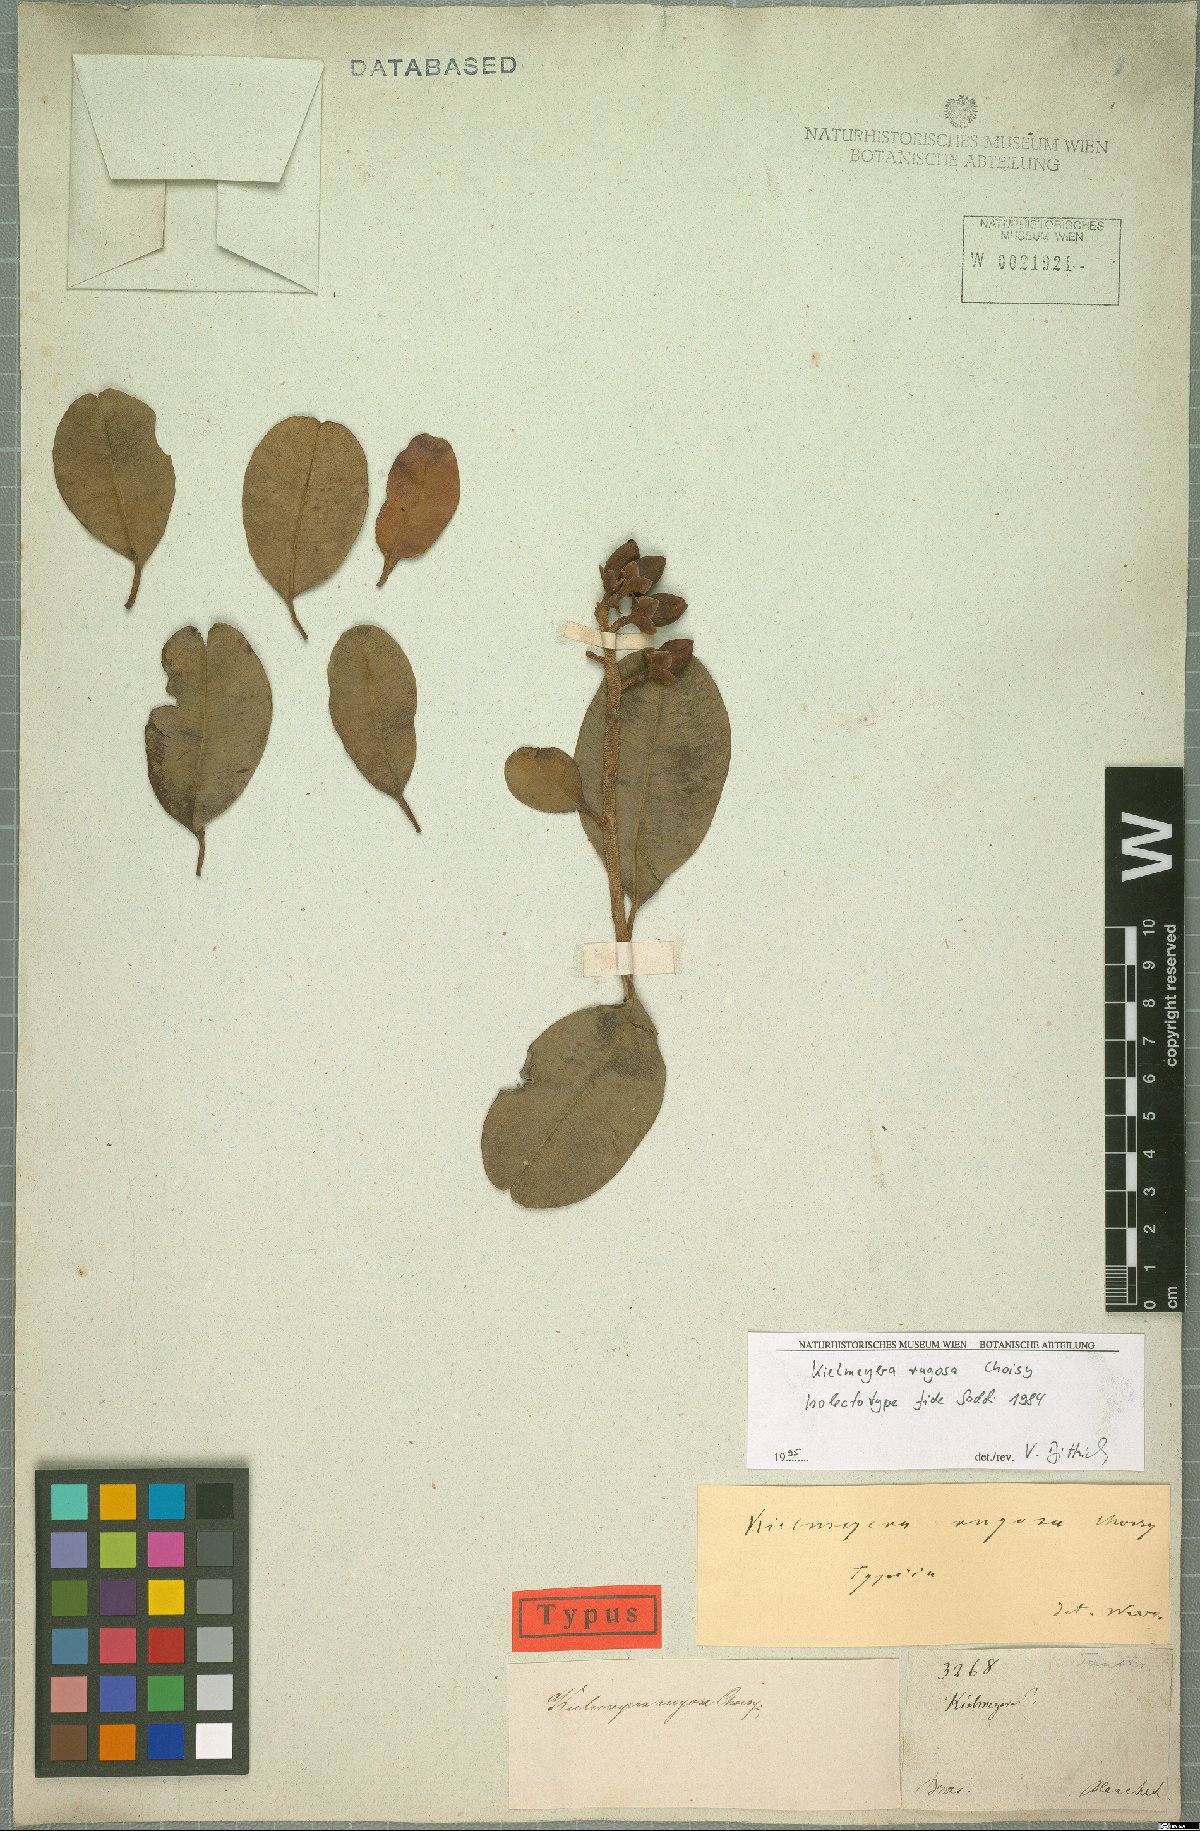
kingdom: Plantae
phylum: Tracheophyta
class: Magnoliopsida
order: Malpighiales
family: Calophyllaceae
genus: Kielmeyera
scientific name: Kielmeyera rugosa
